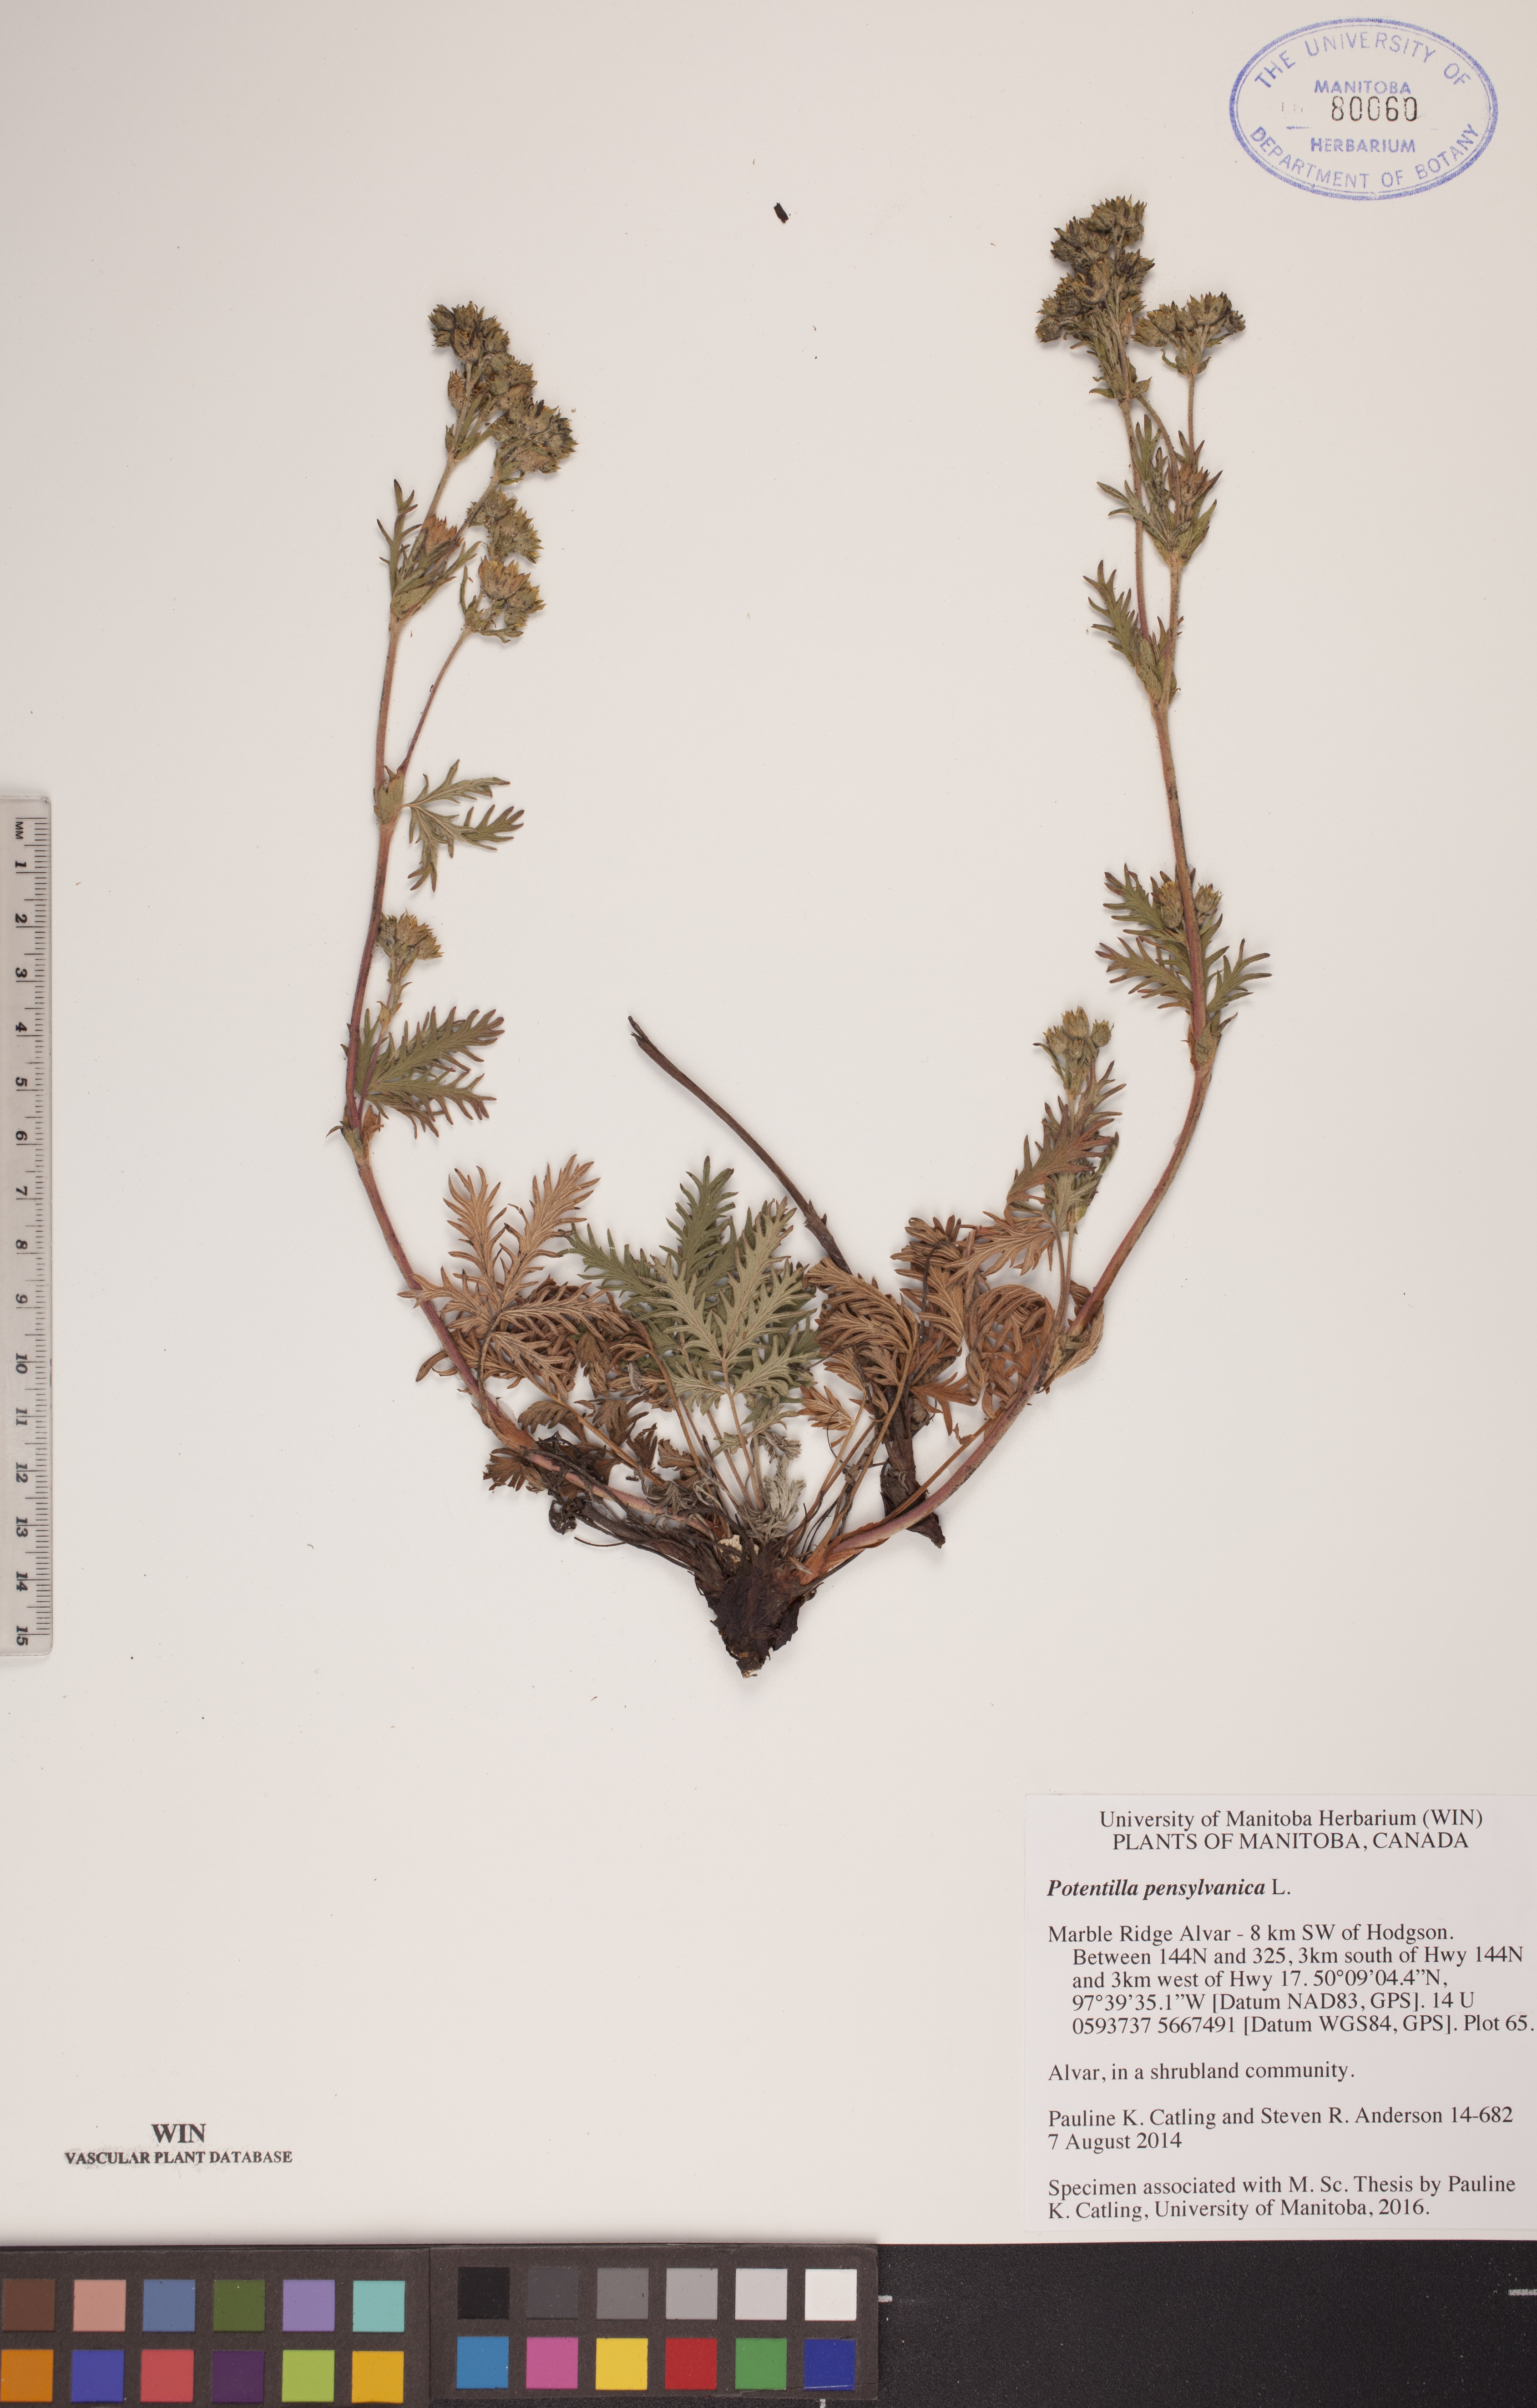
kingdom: Plantae
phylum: Tracheophyta
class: Magnoliopsida
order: Rosales
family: Rosaceae
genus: Potentilla
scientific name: Potentilla pensylvanica
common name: Pennsylvania cinquefoil
